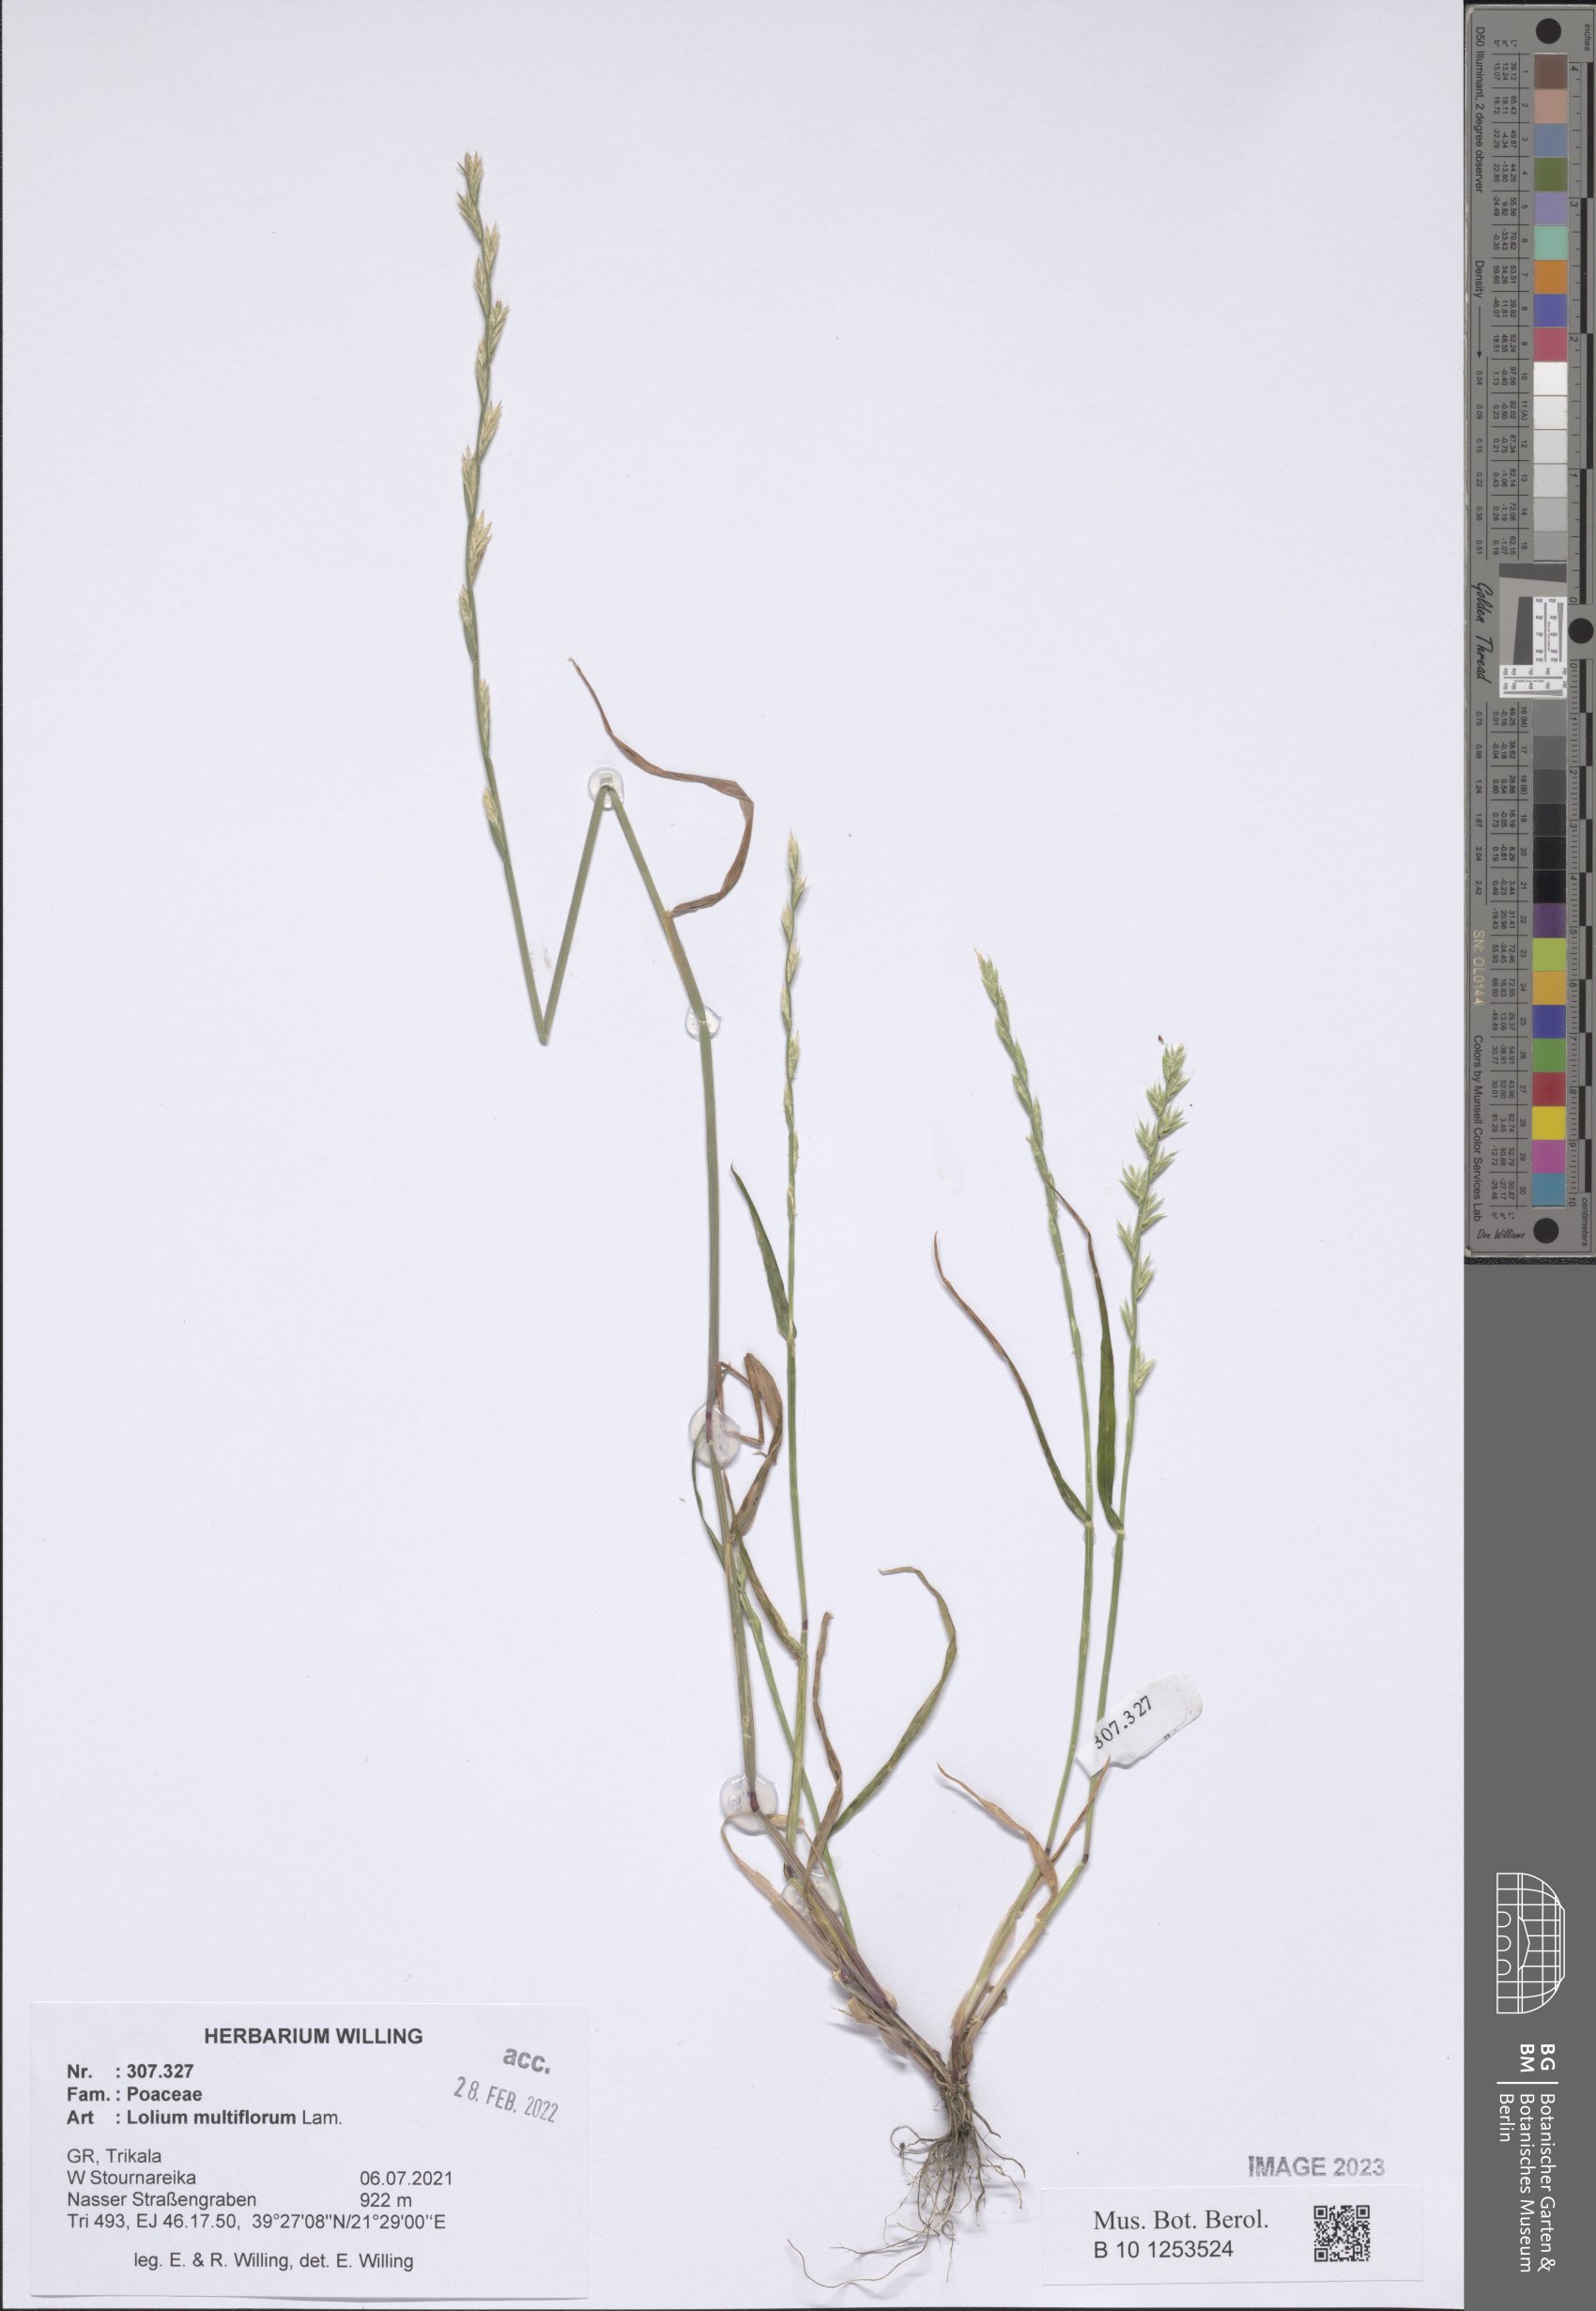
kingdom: Plantae
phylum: Tracheophyta
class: Liliopsida
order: Poales
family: Poaceae
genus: Lolium
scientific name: Lolium multiflorum
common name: Annual ryegrass
